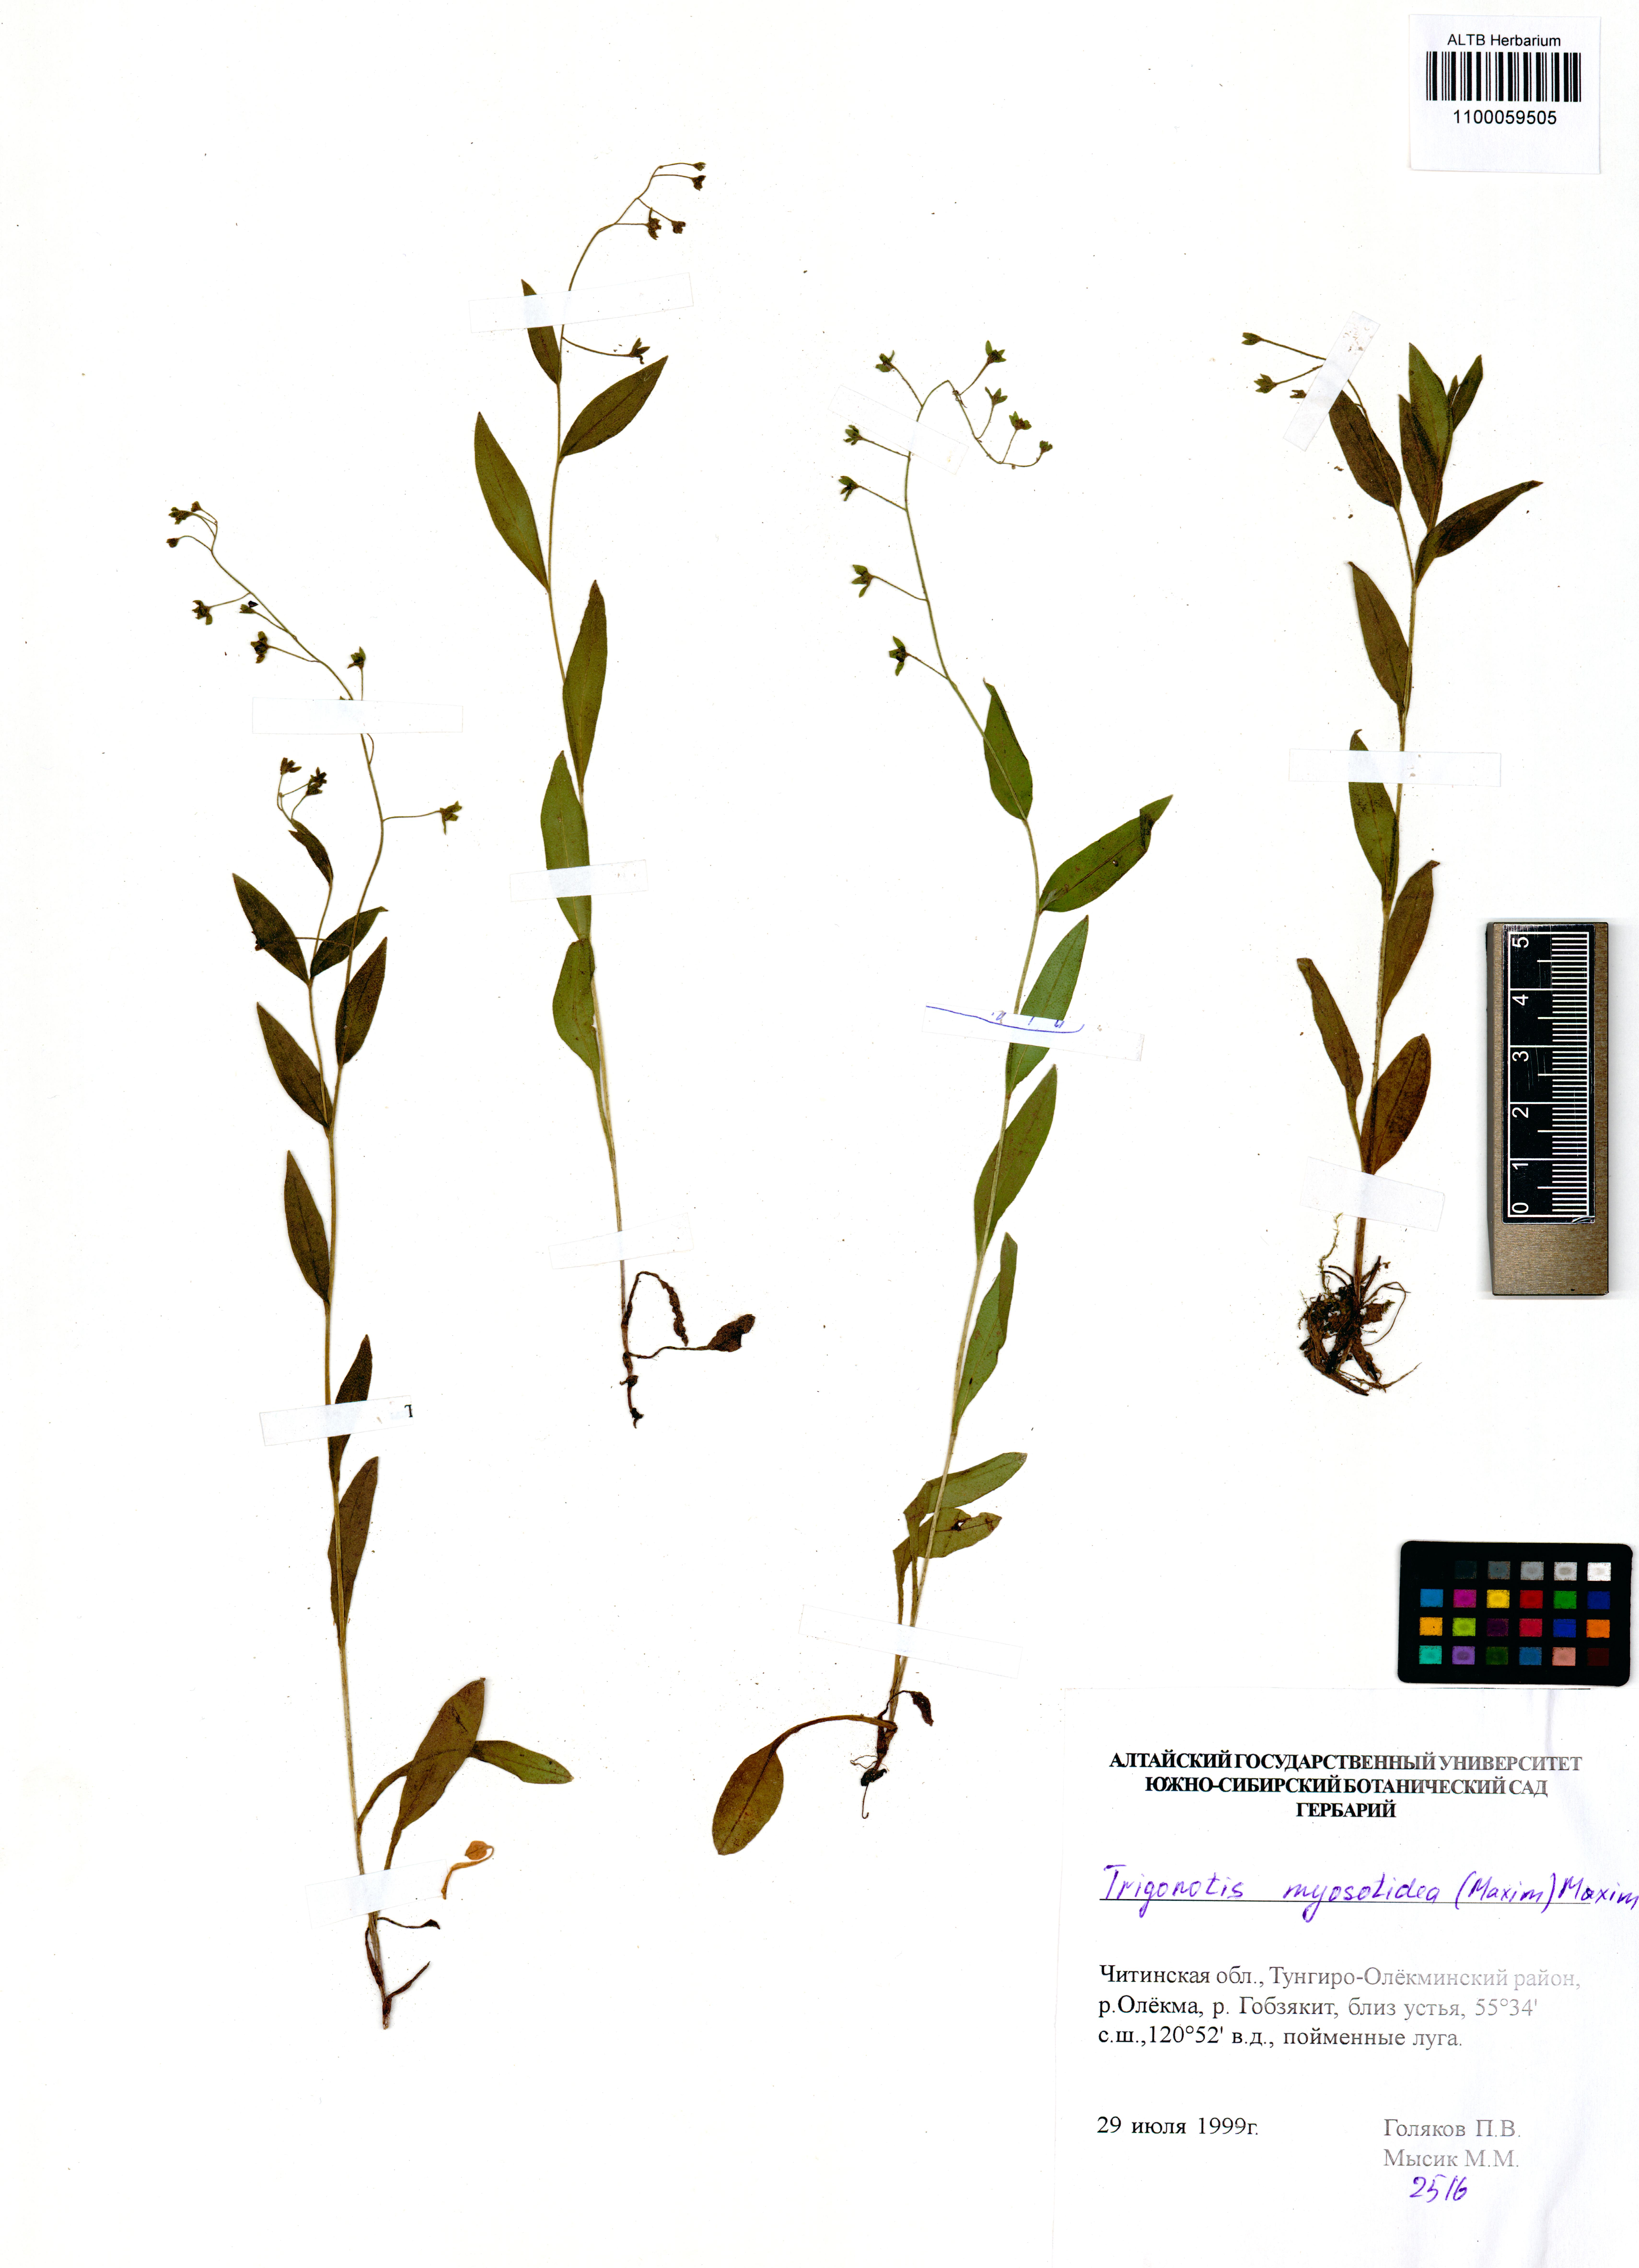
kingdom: Plantae
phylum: Tracheophyta
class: Magnoliopsida
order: Boraginales
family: Boraginaceae
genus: Trigonotis
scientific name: Trigonotis myosotidea
